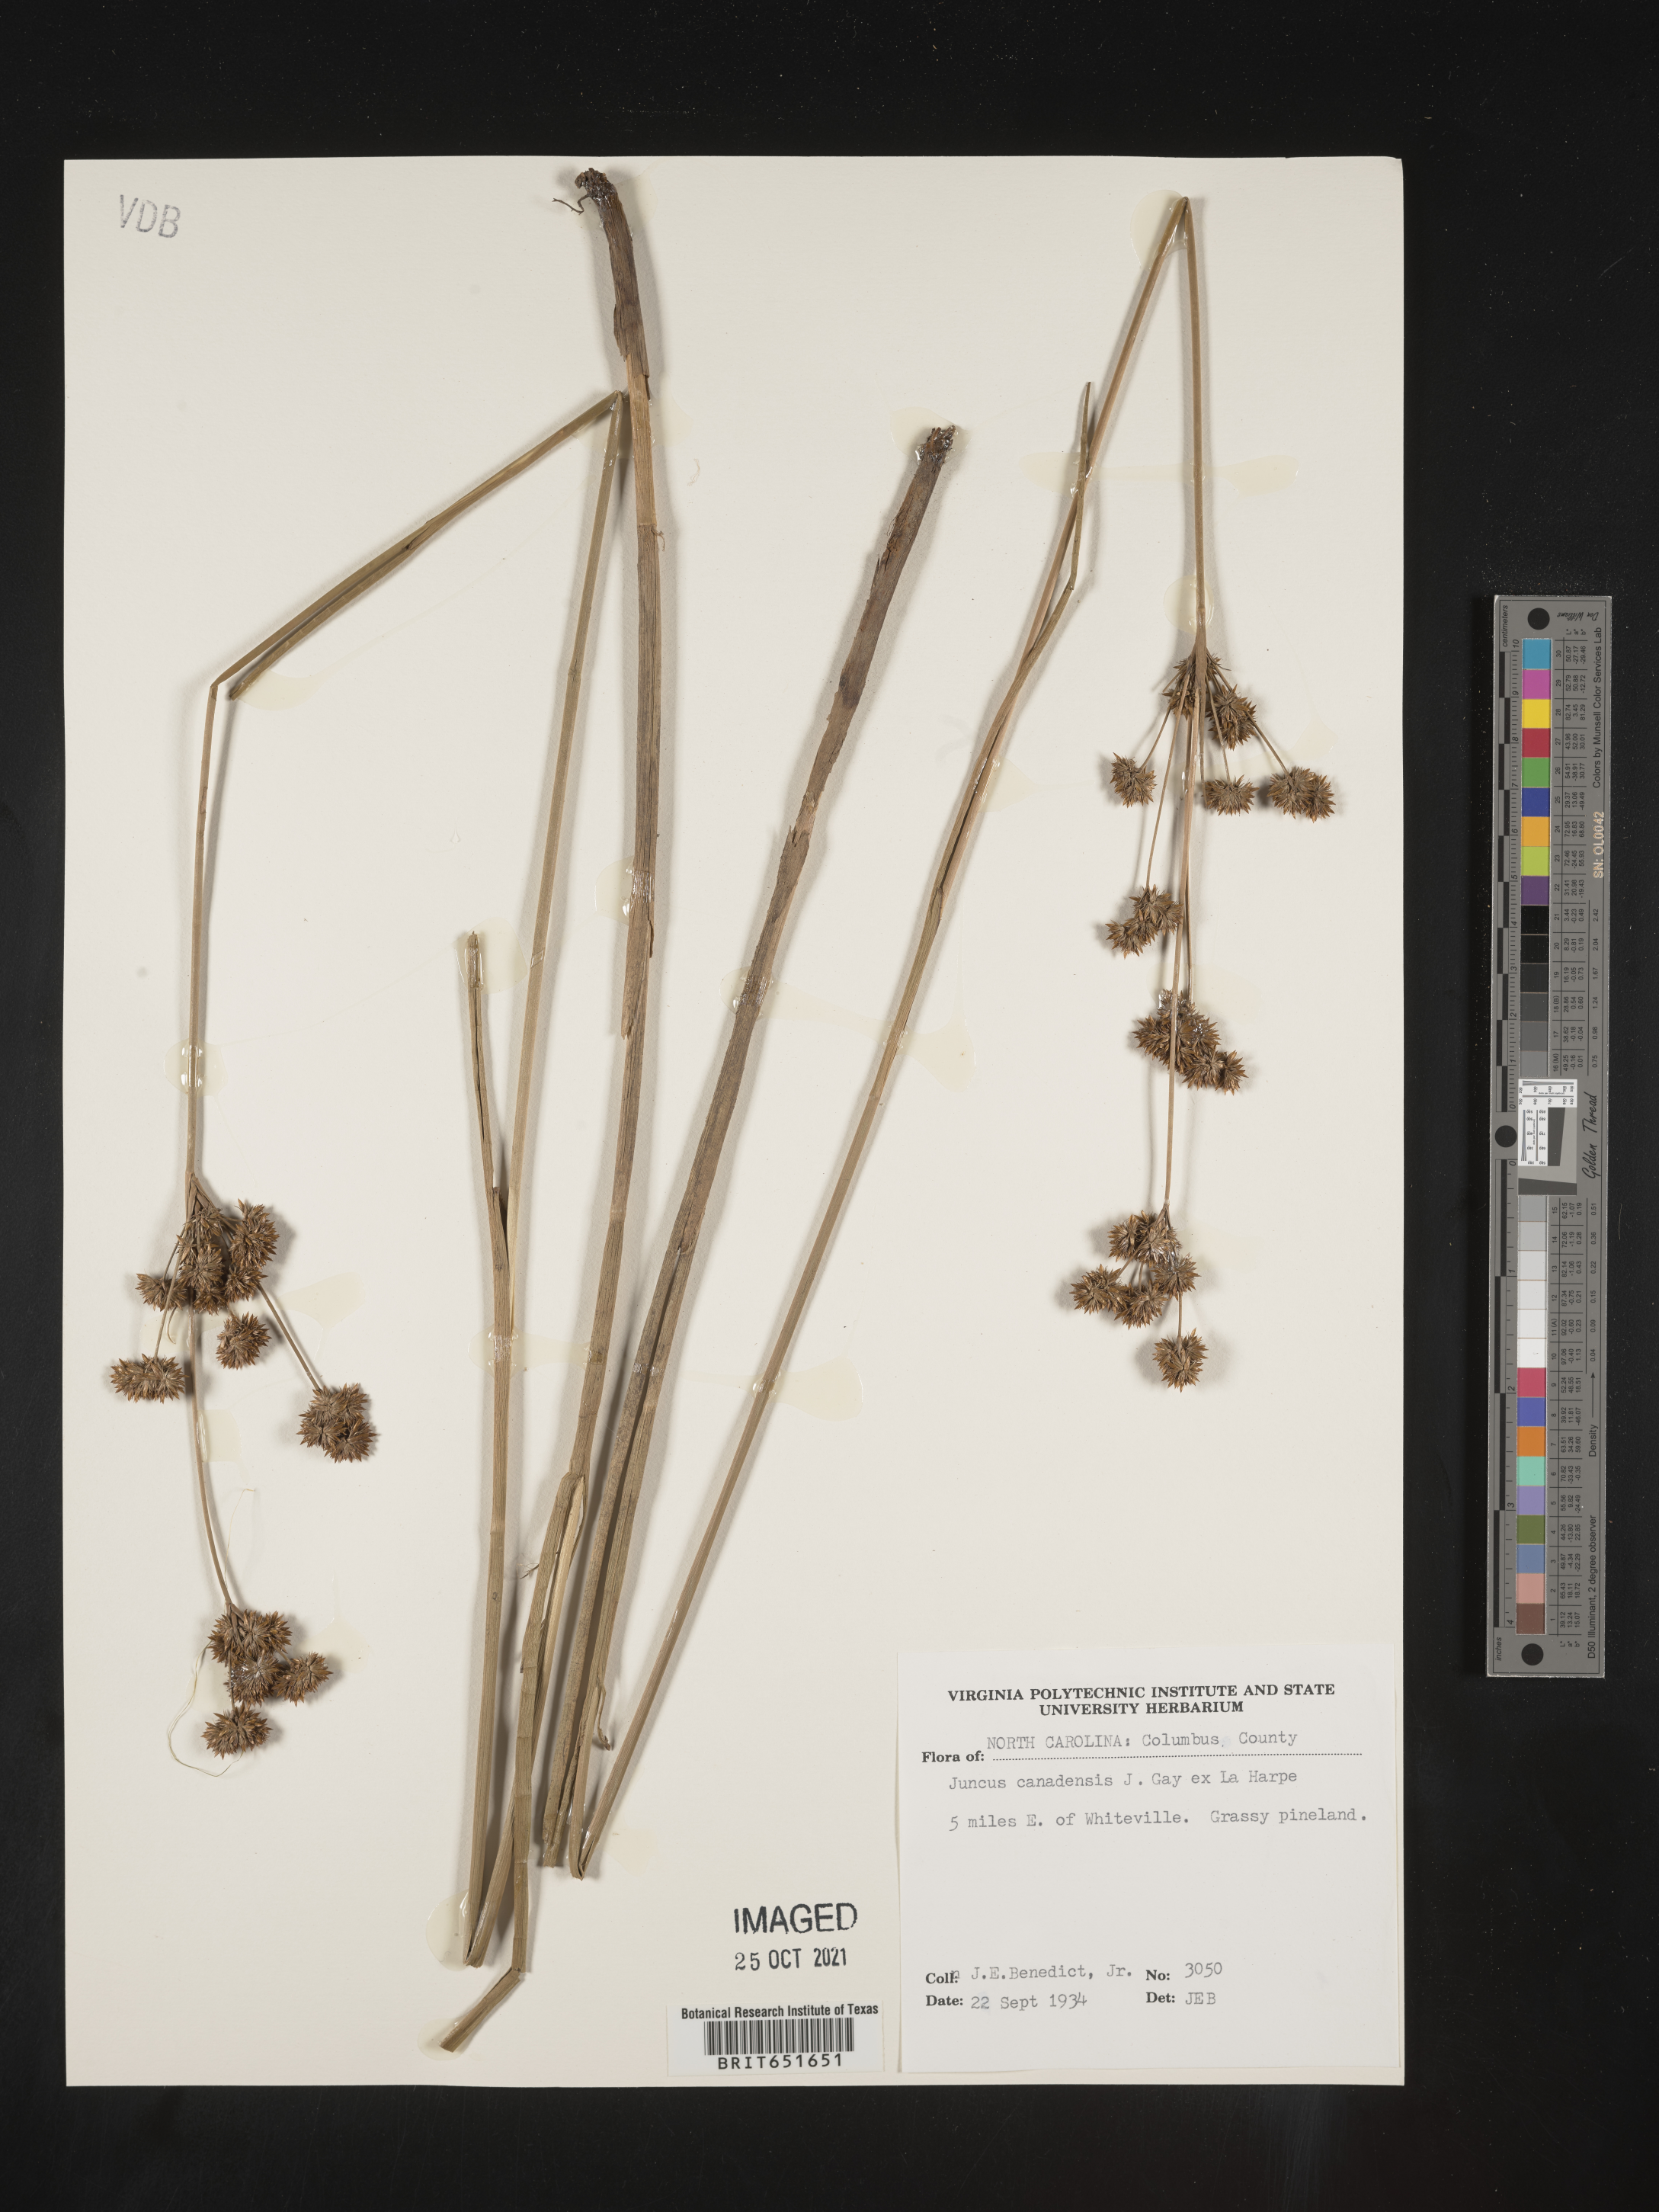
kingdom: Plantae
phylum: Tracheophyta
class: Liliopsida
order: Poales
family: Juncaceae
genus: Juncus
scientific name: Juncus canadensis
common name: Canada rush
